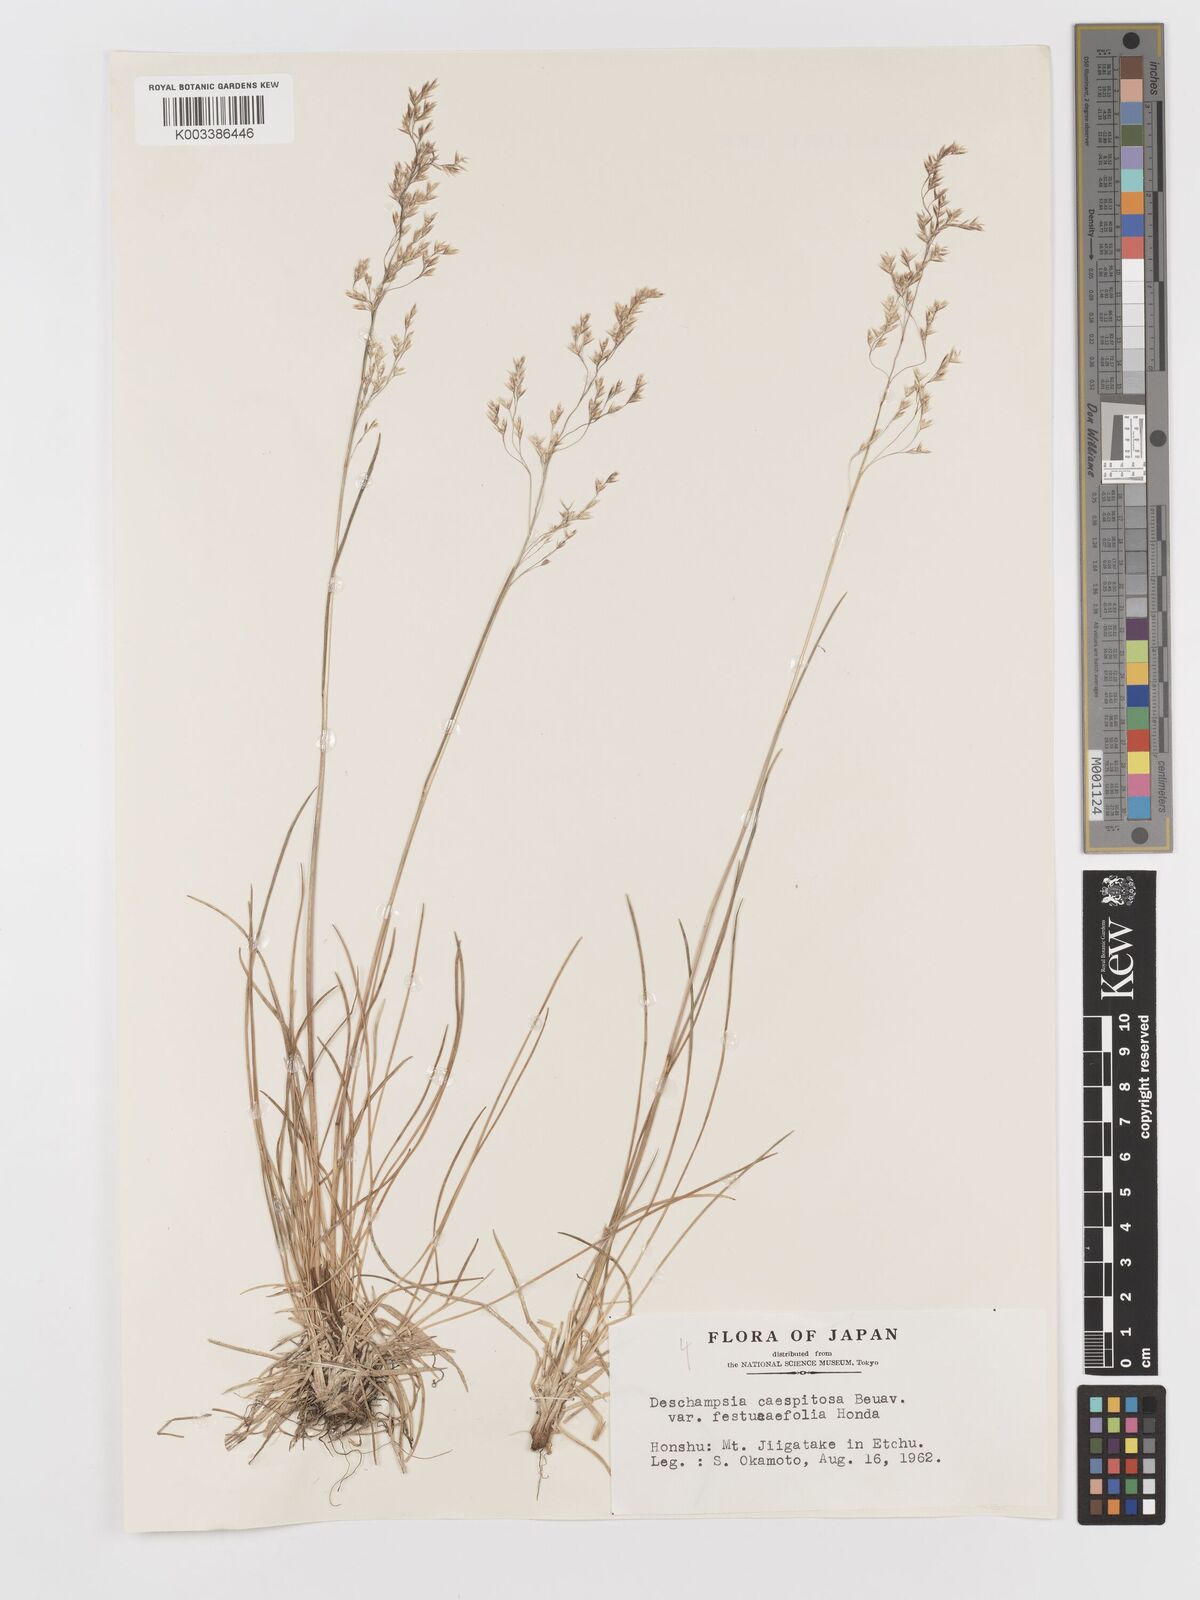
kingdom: Plantae
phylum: Tracheophyta
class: Liliopsida
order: Poales
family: Poaceae
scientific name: Poaceae
